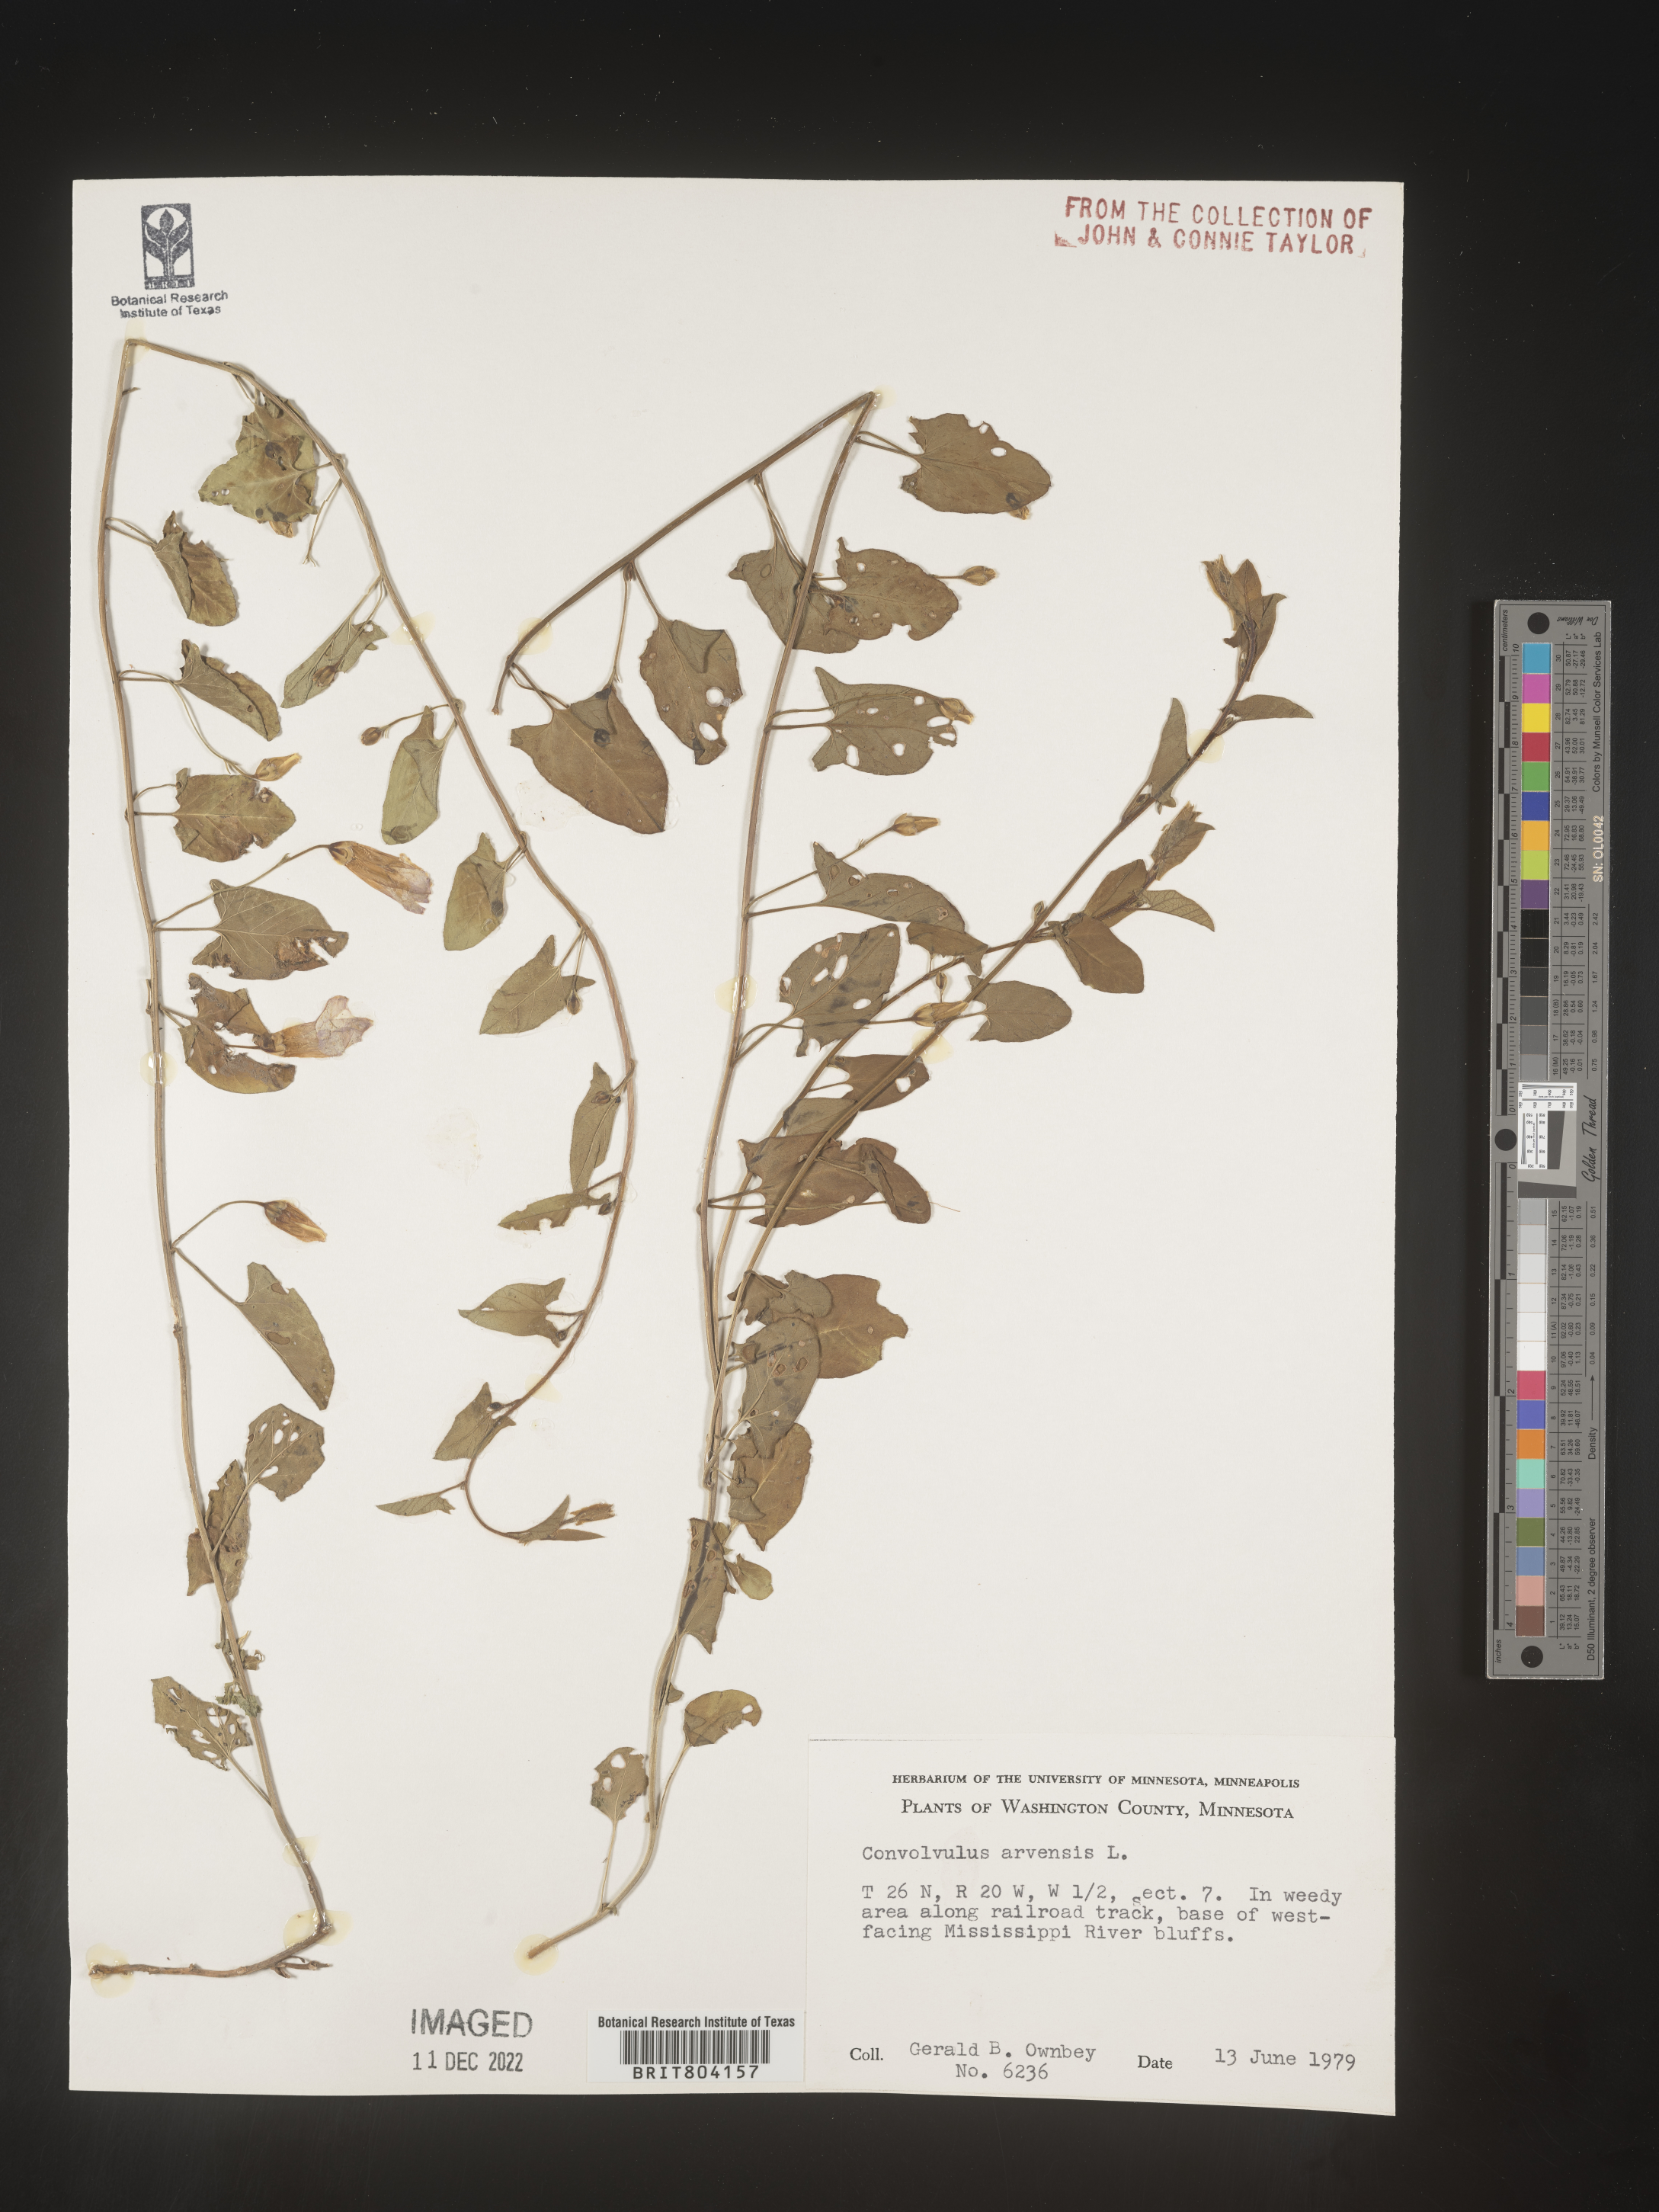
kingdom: Plantae
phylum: Tracheophyta
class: Magnoliopsida
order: Solanales
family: Convolvulaceae
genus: Convolvulus
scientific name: Convolvulus arvensis
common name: Field bindweed
